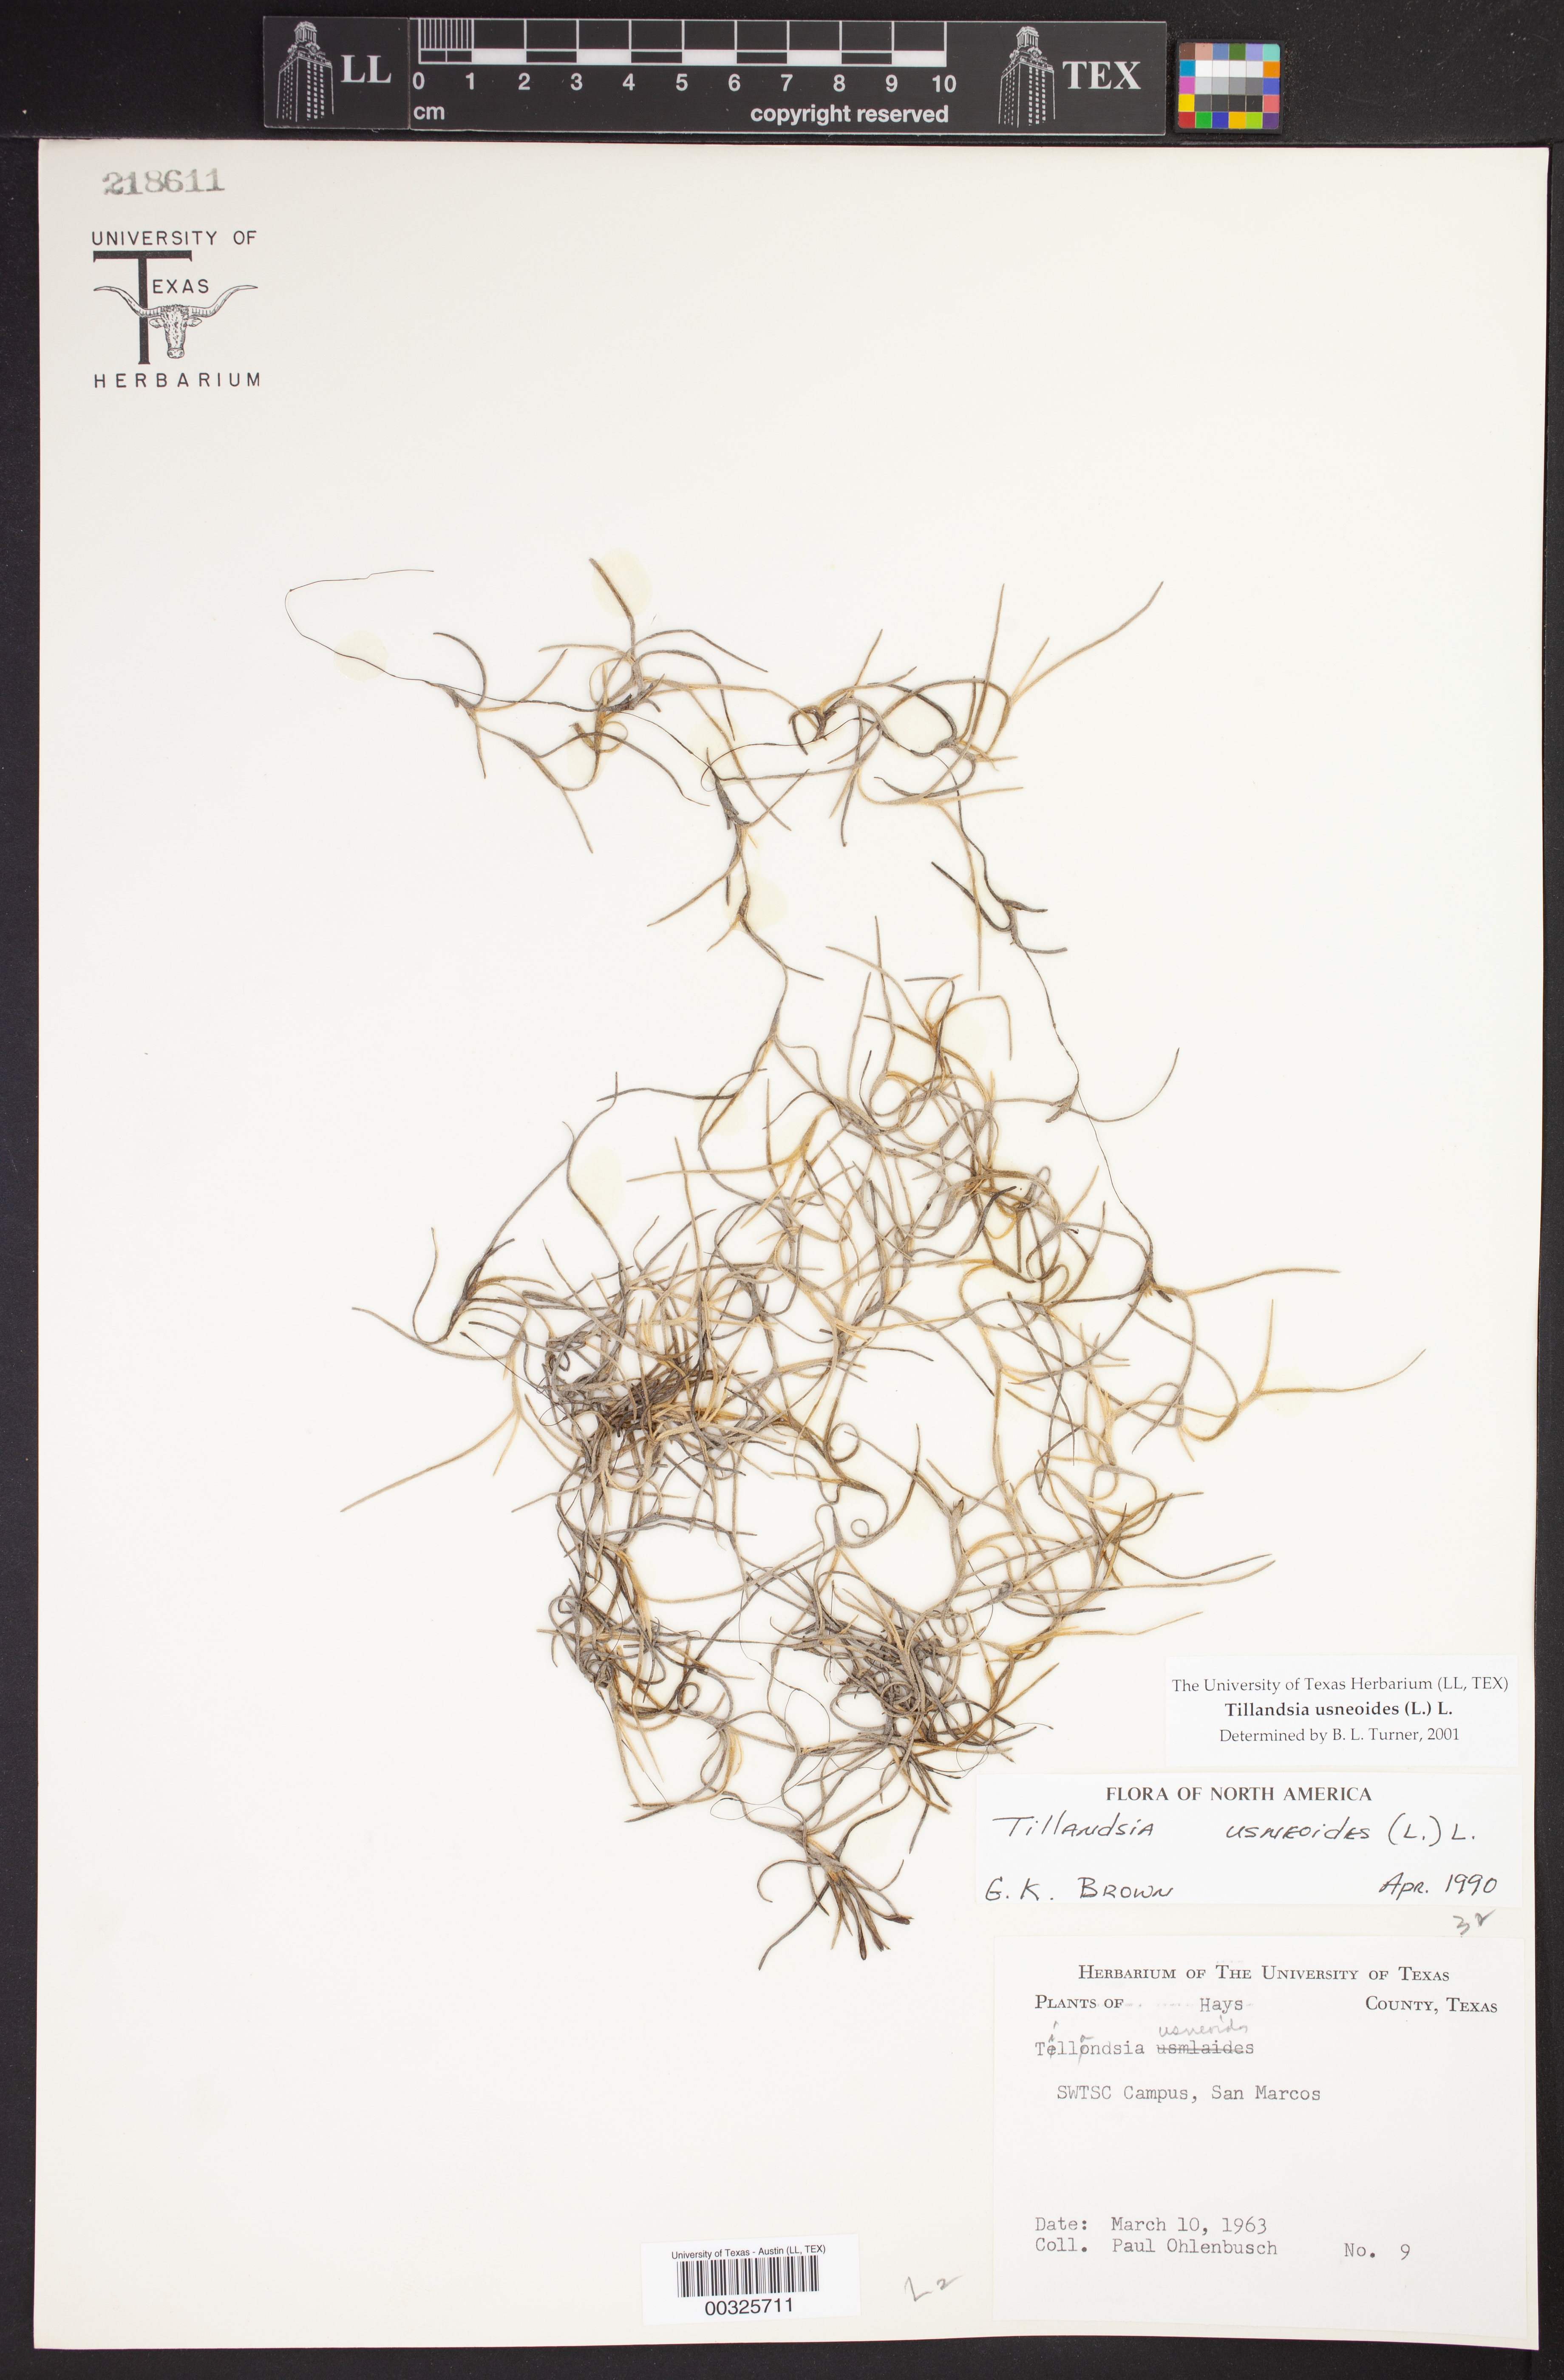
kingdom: Plantae
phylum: Tracheophyta
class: Liliopsida
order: Poales
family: Bromeliaceae
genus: Tillandsia
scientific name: Tillandsia usneoides
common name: Spanish moss
